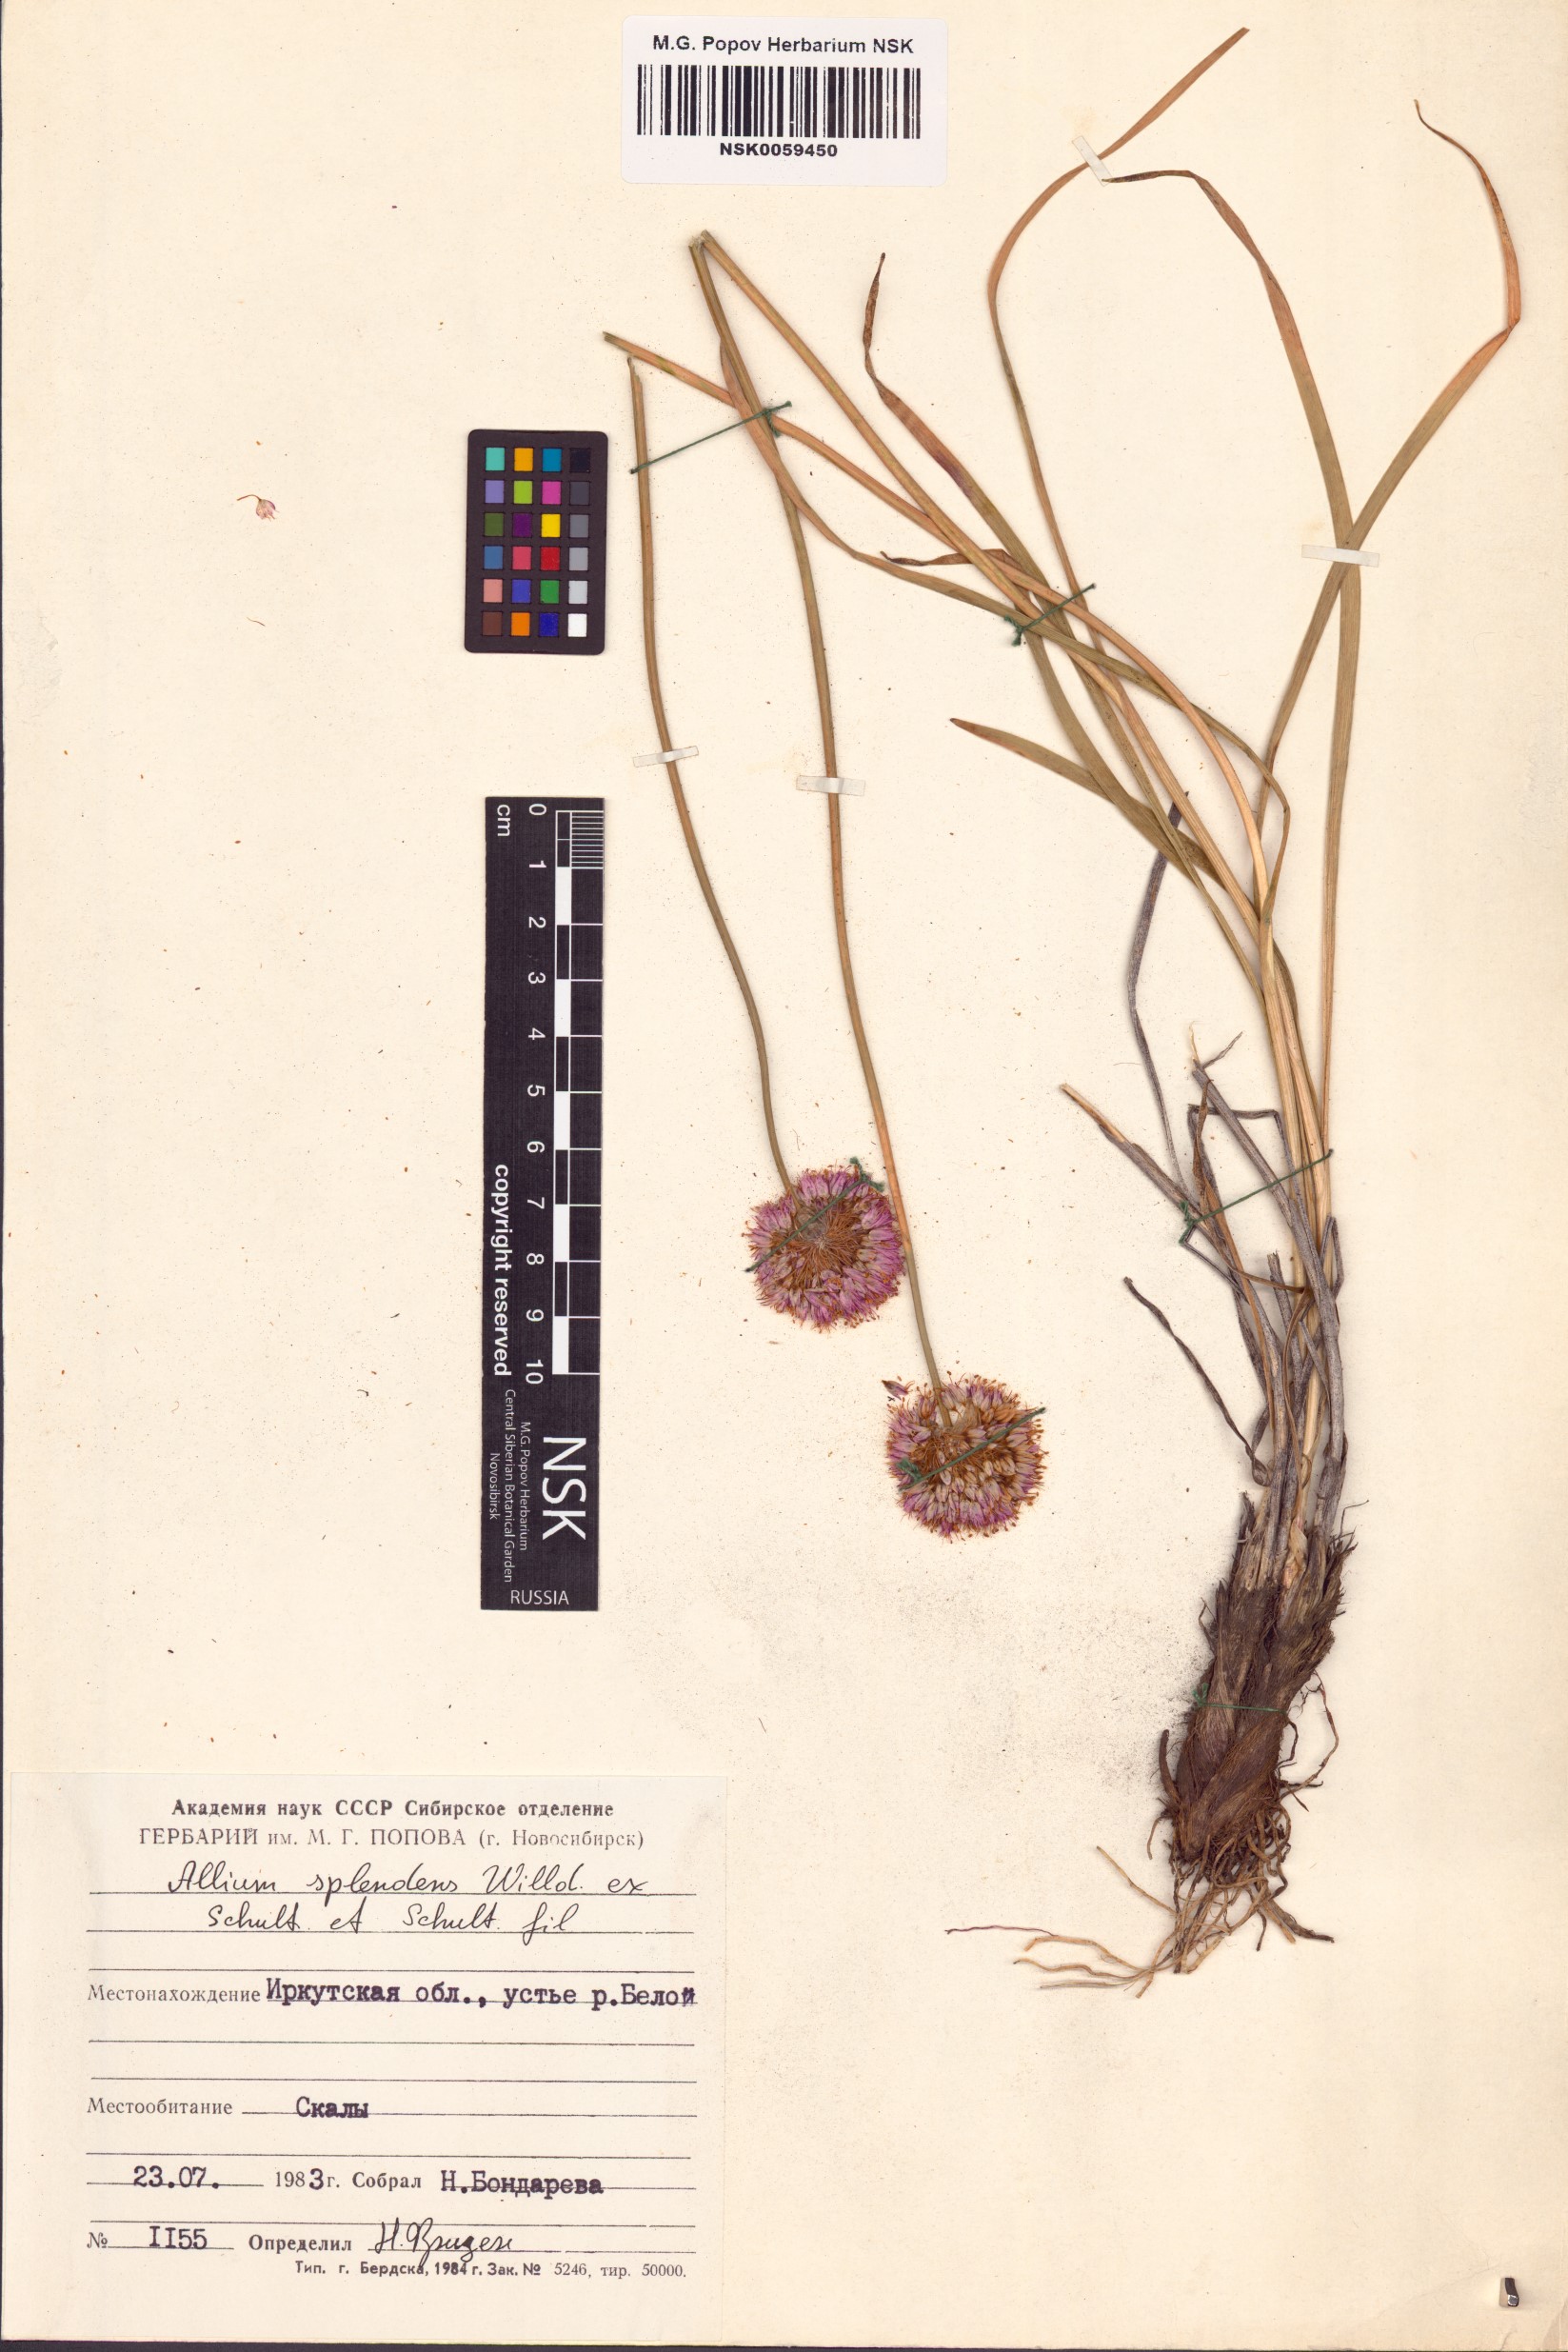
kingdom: Plantae
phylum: Tracheophyta
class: Liliopsida
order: Asparagales
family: Amaryllidaceae
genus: Allium
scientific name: Allium splendens
